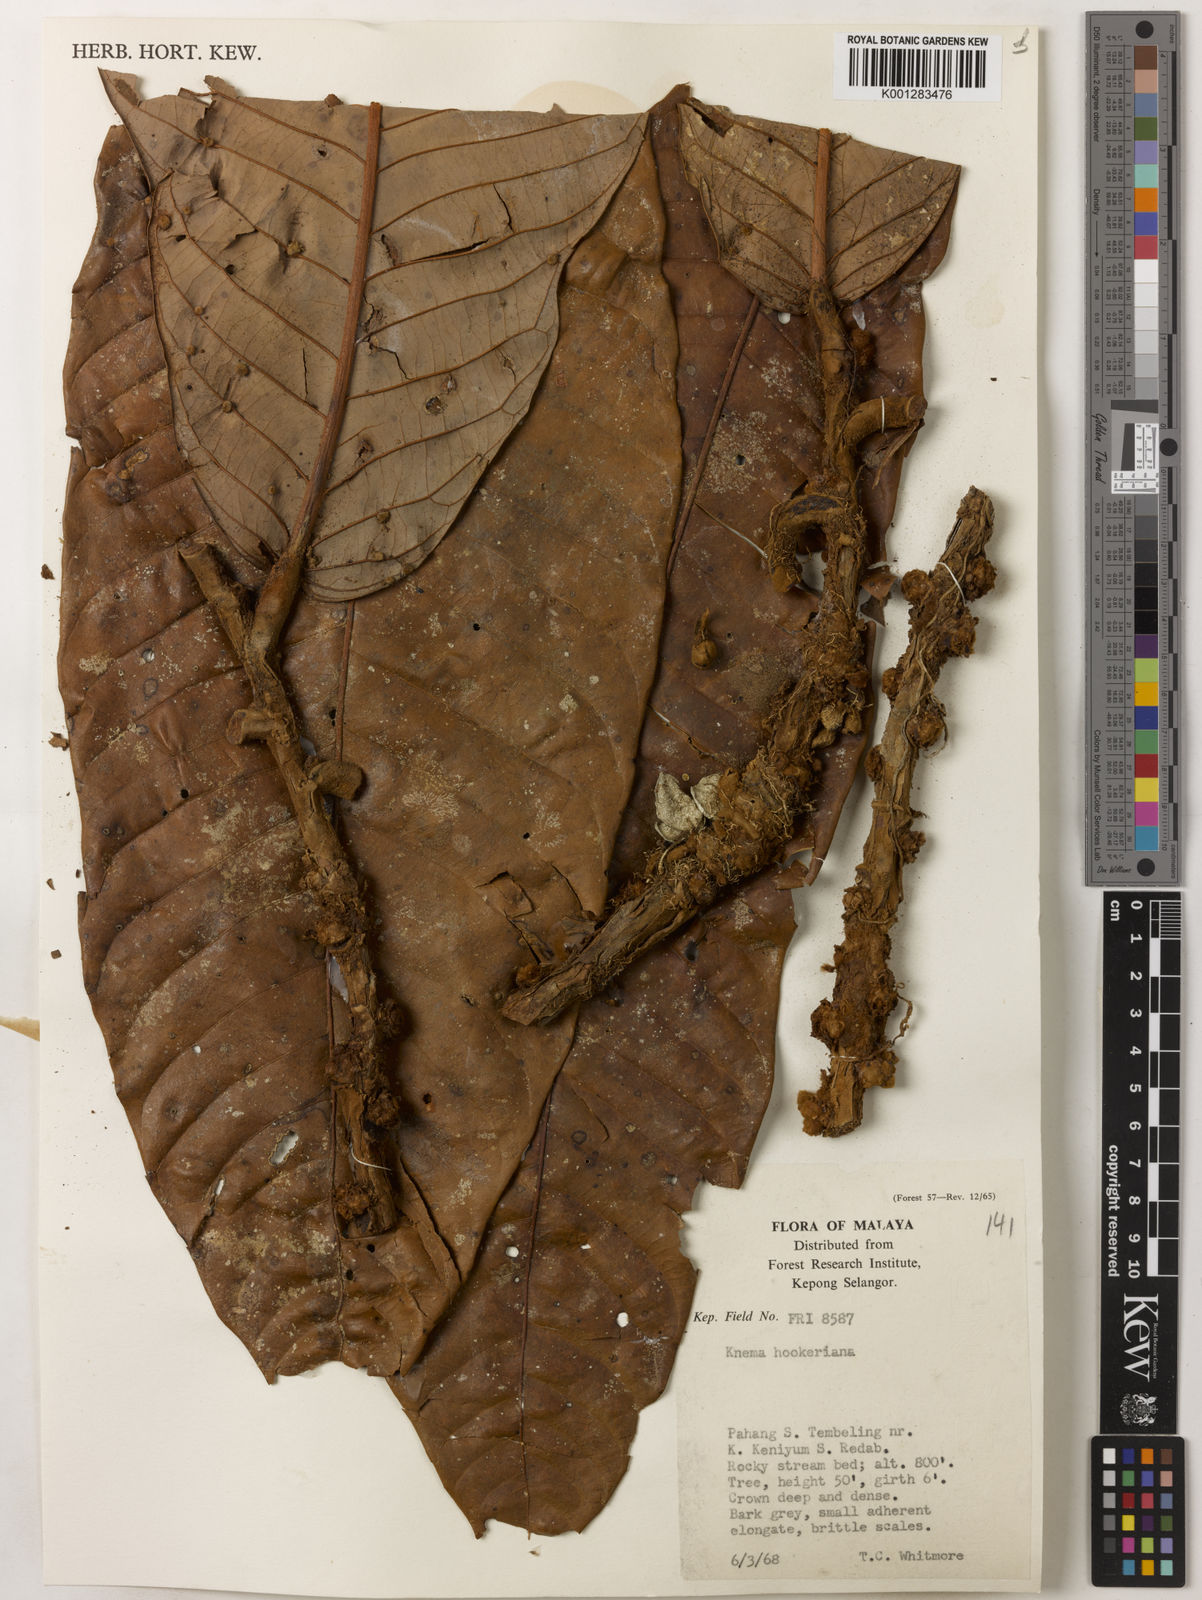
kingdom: Plantae
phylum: Tracheophyta
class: Magnoliopsida
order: Magnoliales
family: Myristicaceae
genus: Knema
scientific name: Knema hookeriana
